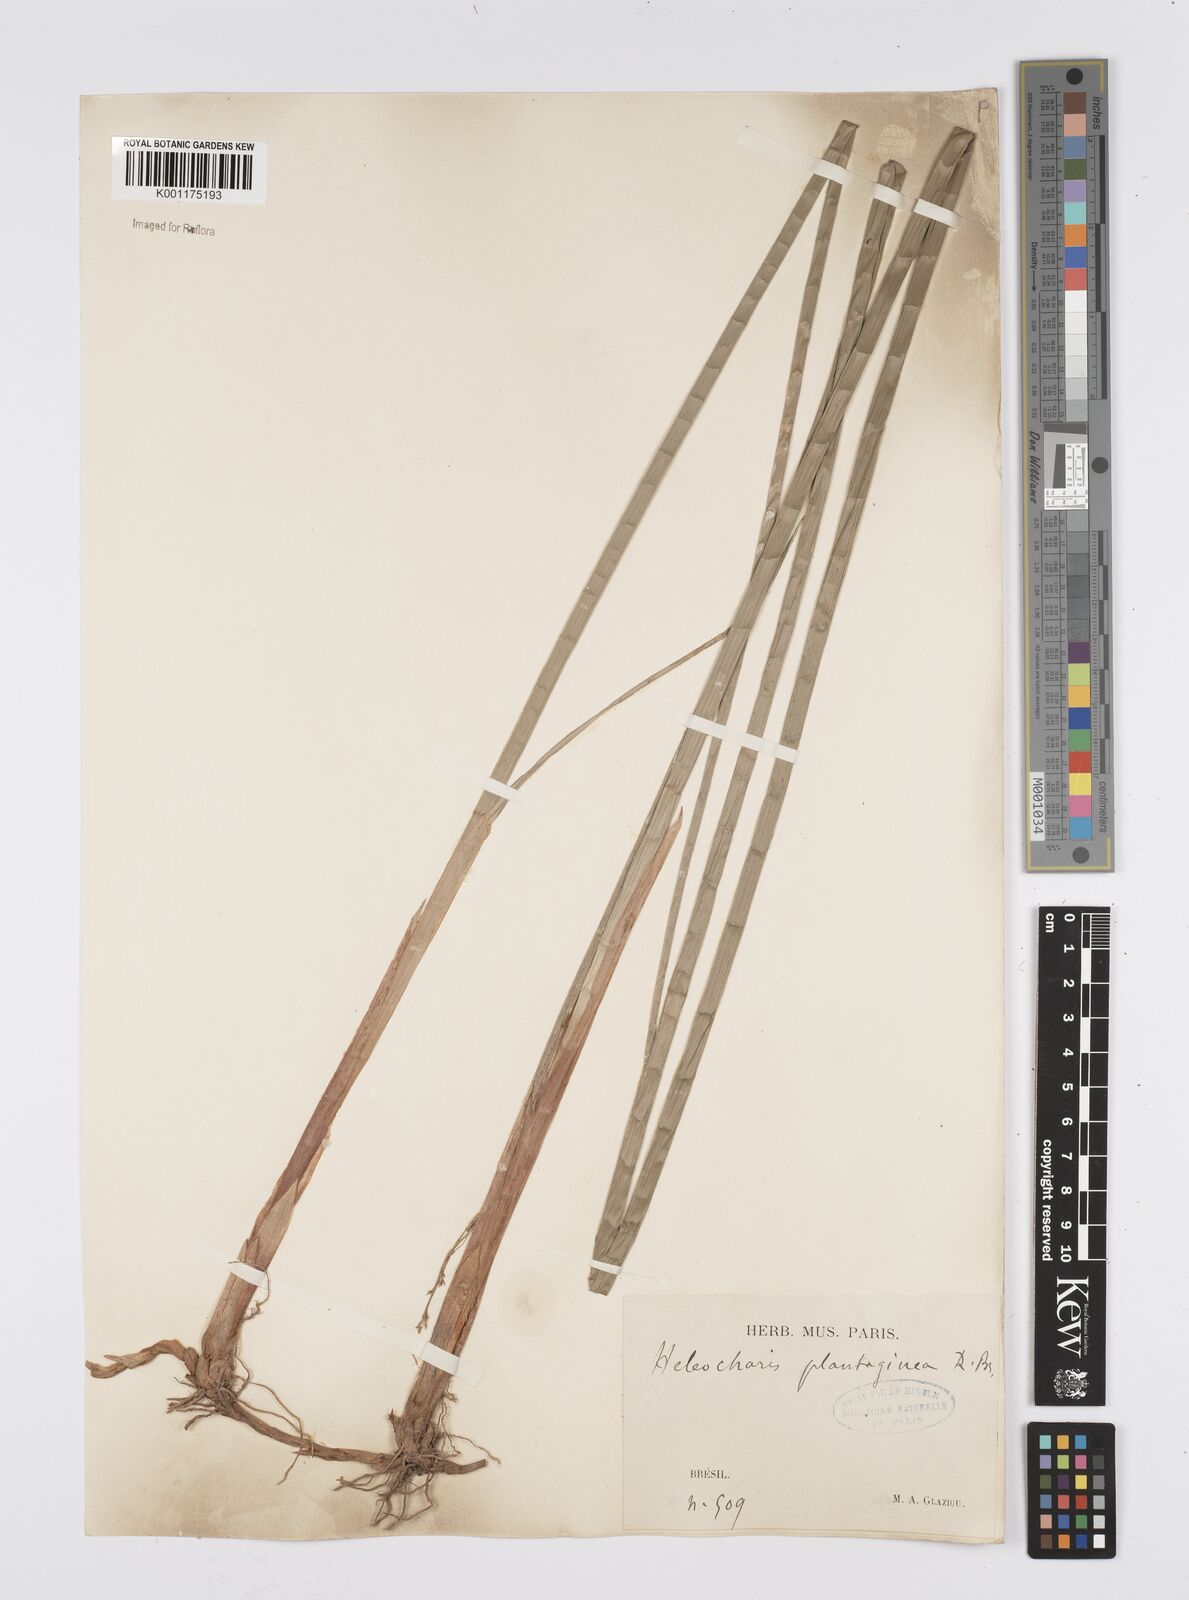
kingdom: Plantae
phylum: Tracheophyta
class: Liliopsida
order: Poales
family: Cyperaceae
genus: Eleocharis
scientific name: Eleocharis interstincta
